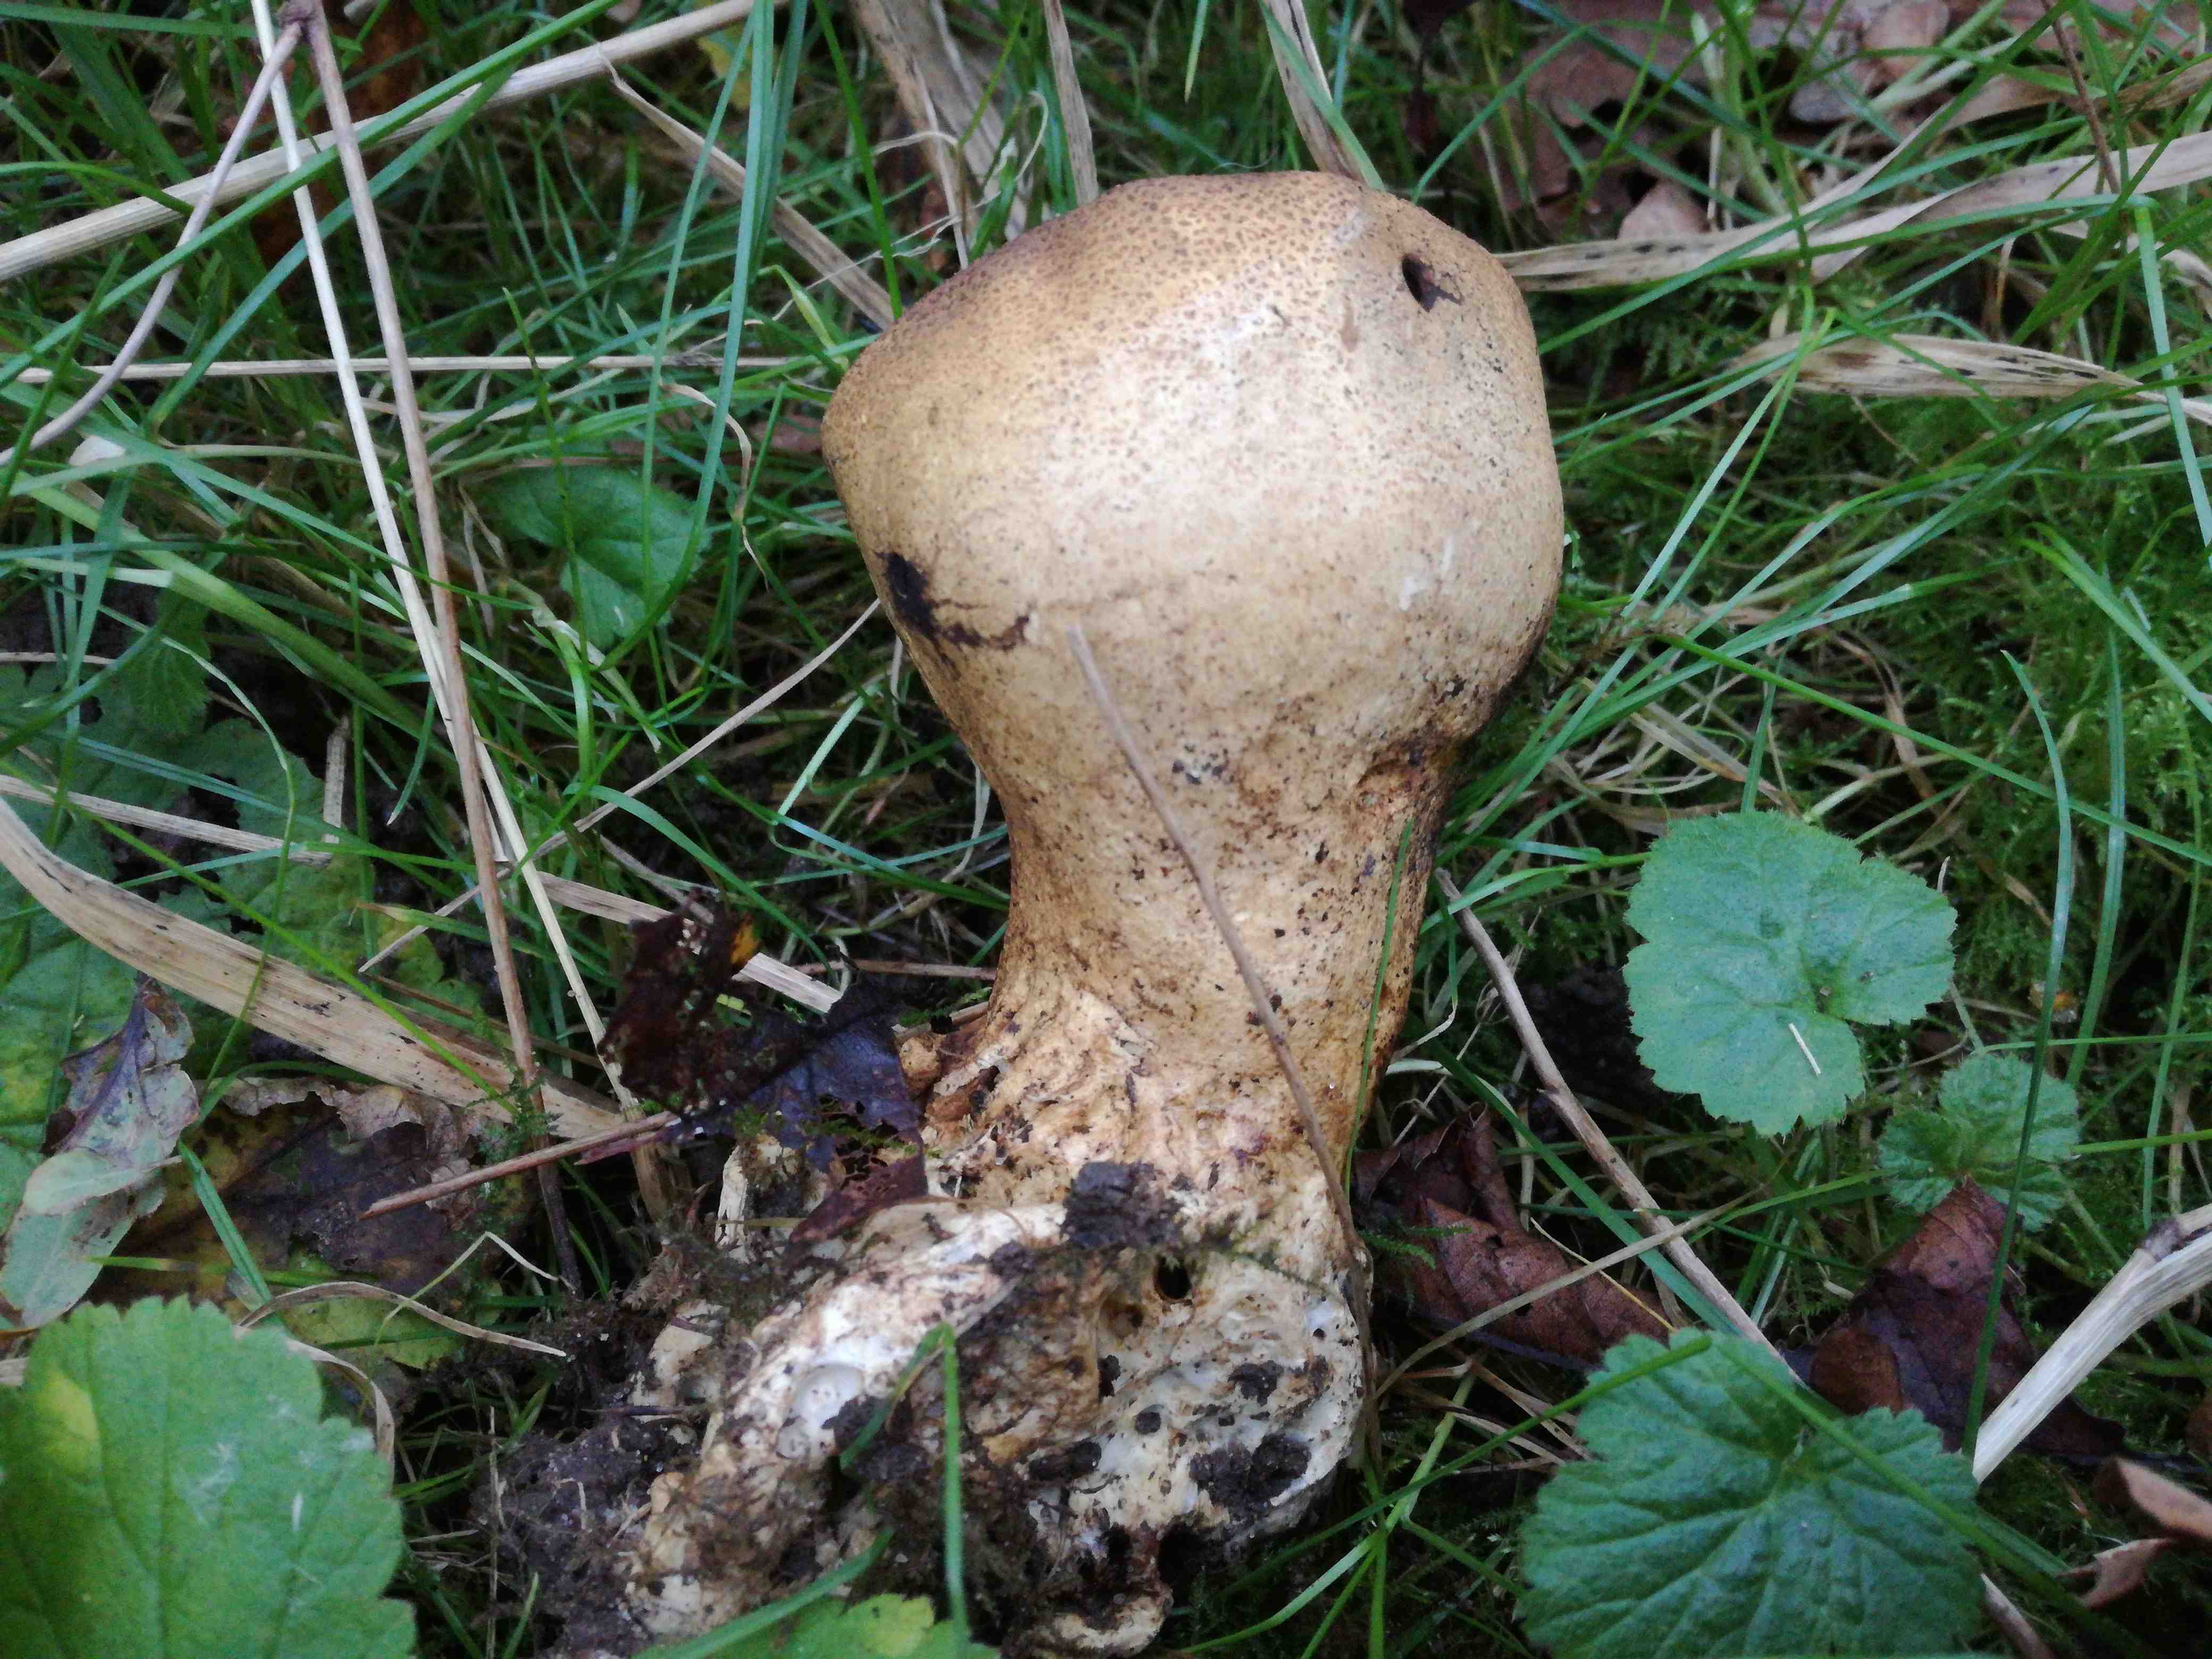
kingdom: Fungi
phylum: Basidiomycota
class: Agaricomycetes
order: Boletales
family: Sclerodermataceae
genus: Scleroderma
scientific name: Scleroderma verrucosum
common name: stilket bruskbold
